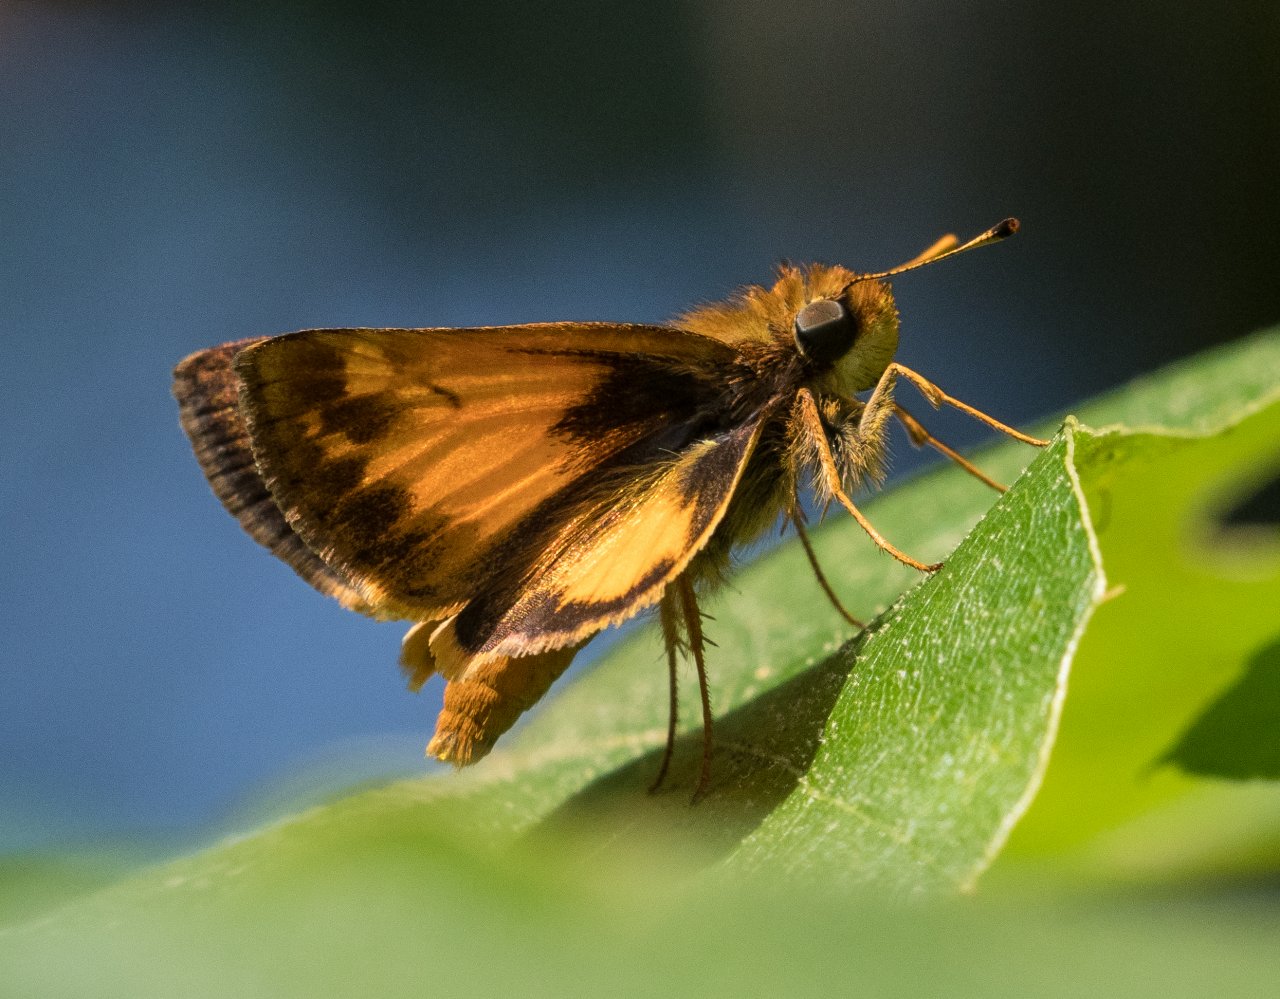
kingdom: Animalia
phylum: Arthropoda
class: Insecta
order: Lepidoptera
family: Hesperiidae
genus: Lon
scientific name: Lon zabulon
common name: Zabulon Skipper
